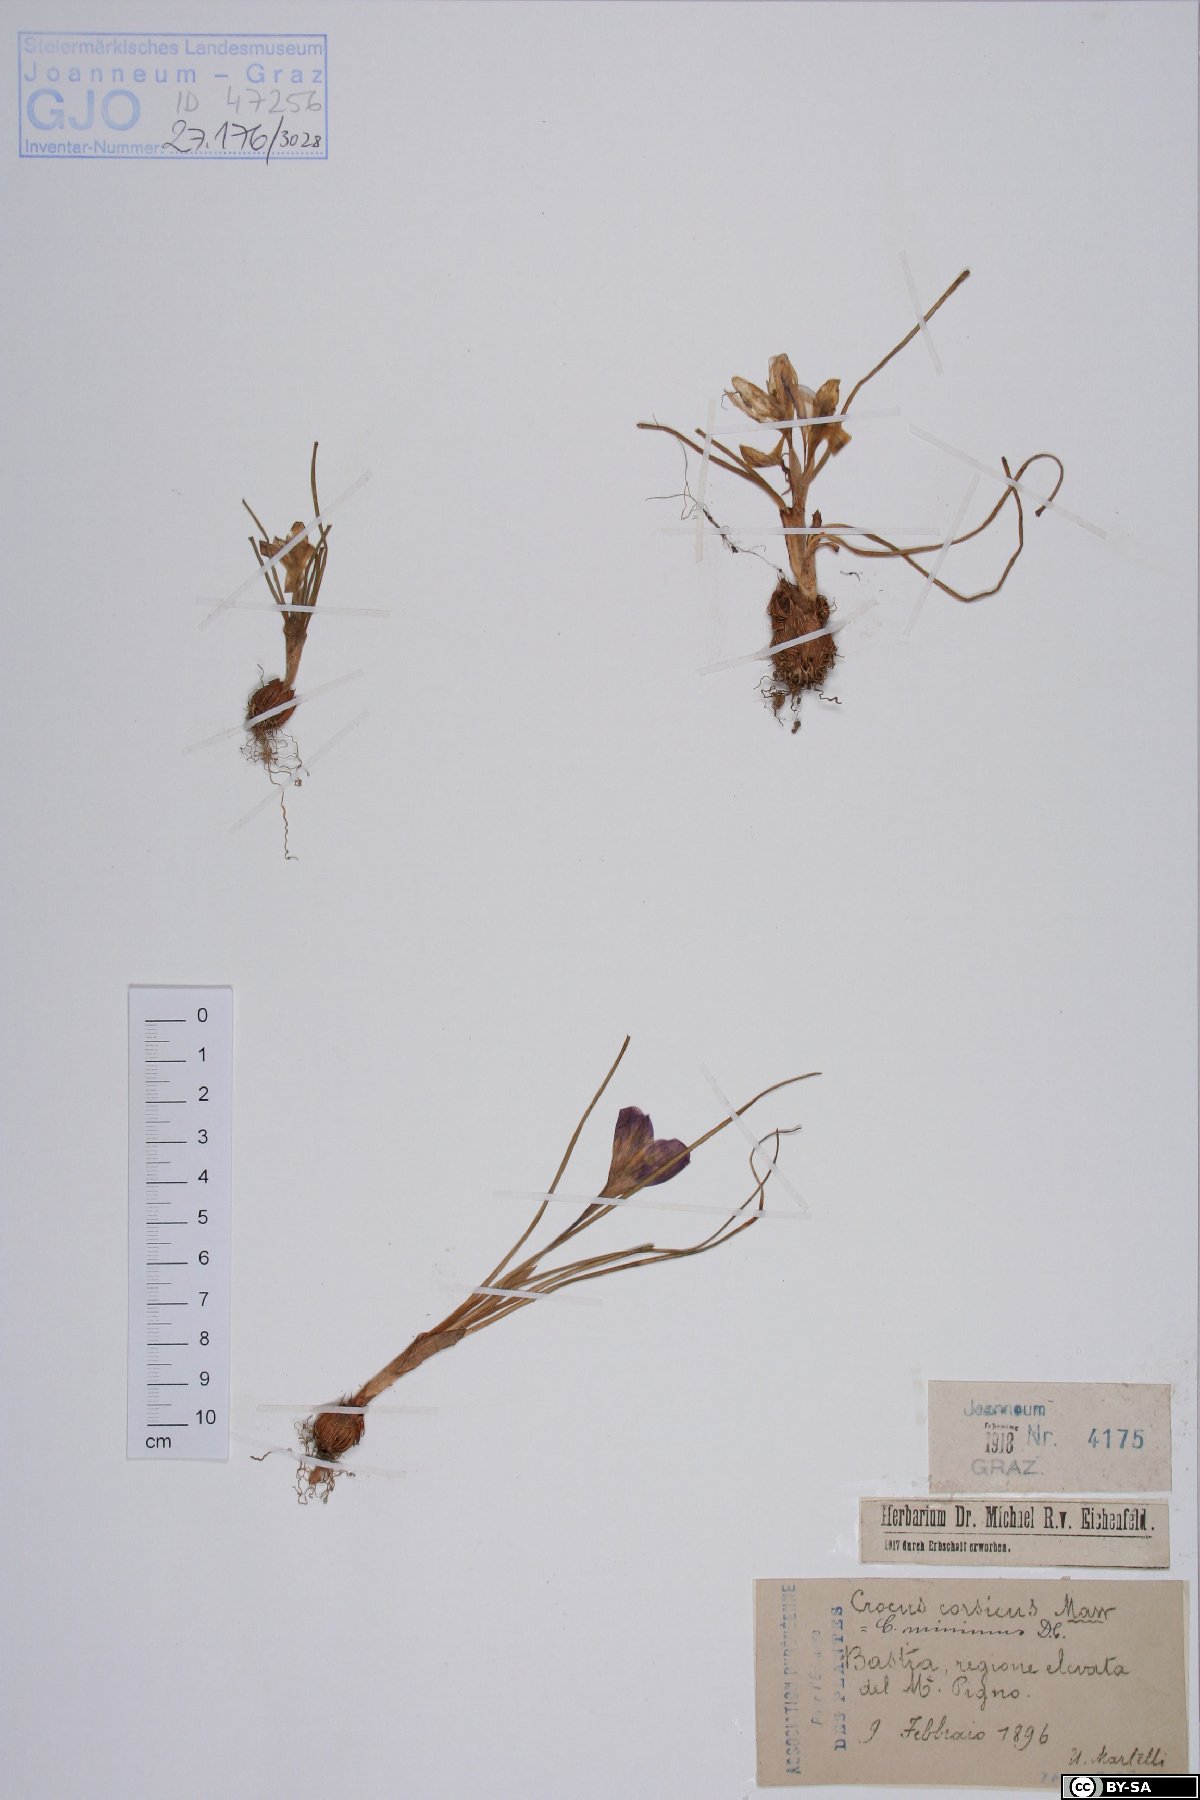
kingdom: Plantae
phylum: Tracheophyta
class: Liliopsida
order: Asparagales
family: Iridaceae
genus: Crocus
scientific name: Crocus corsicus
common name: Corsican crocus
